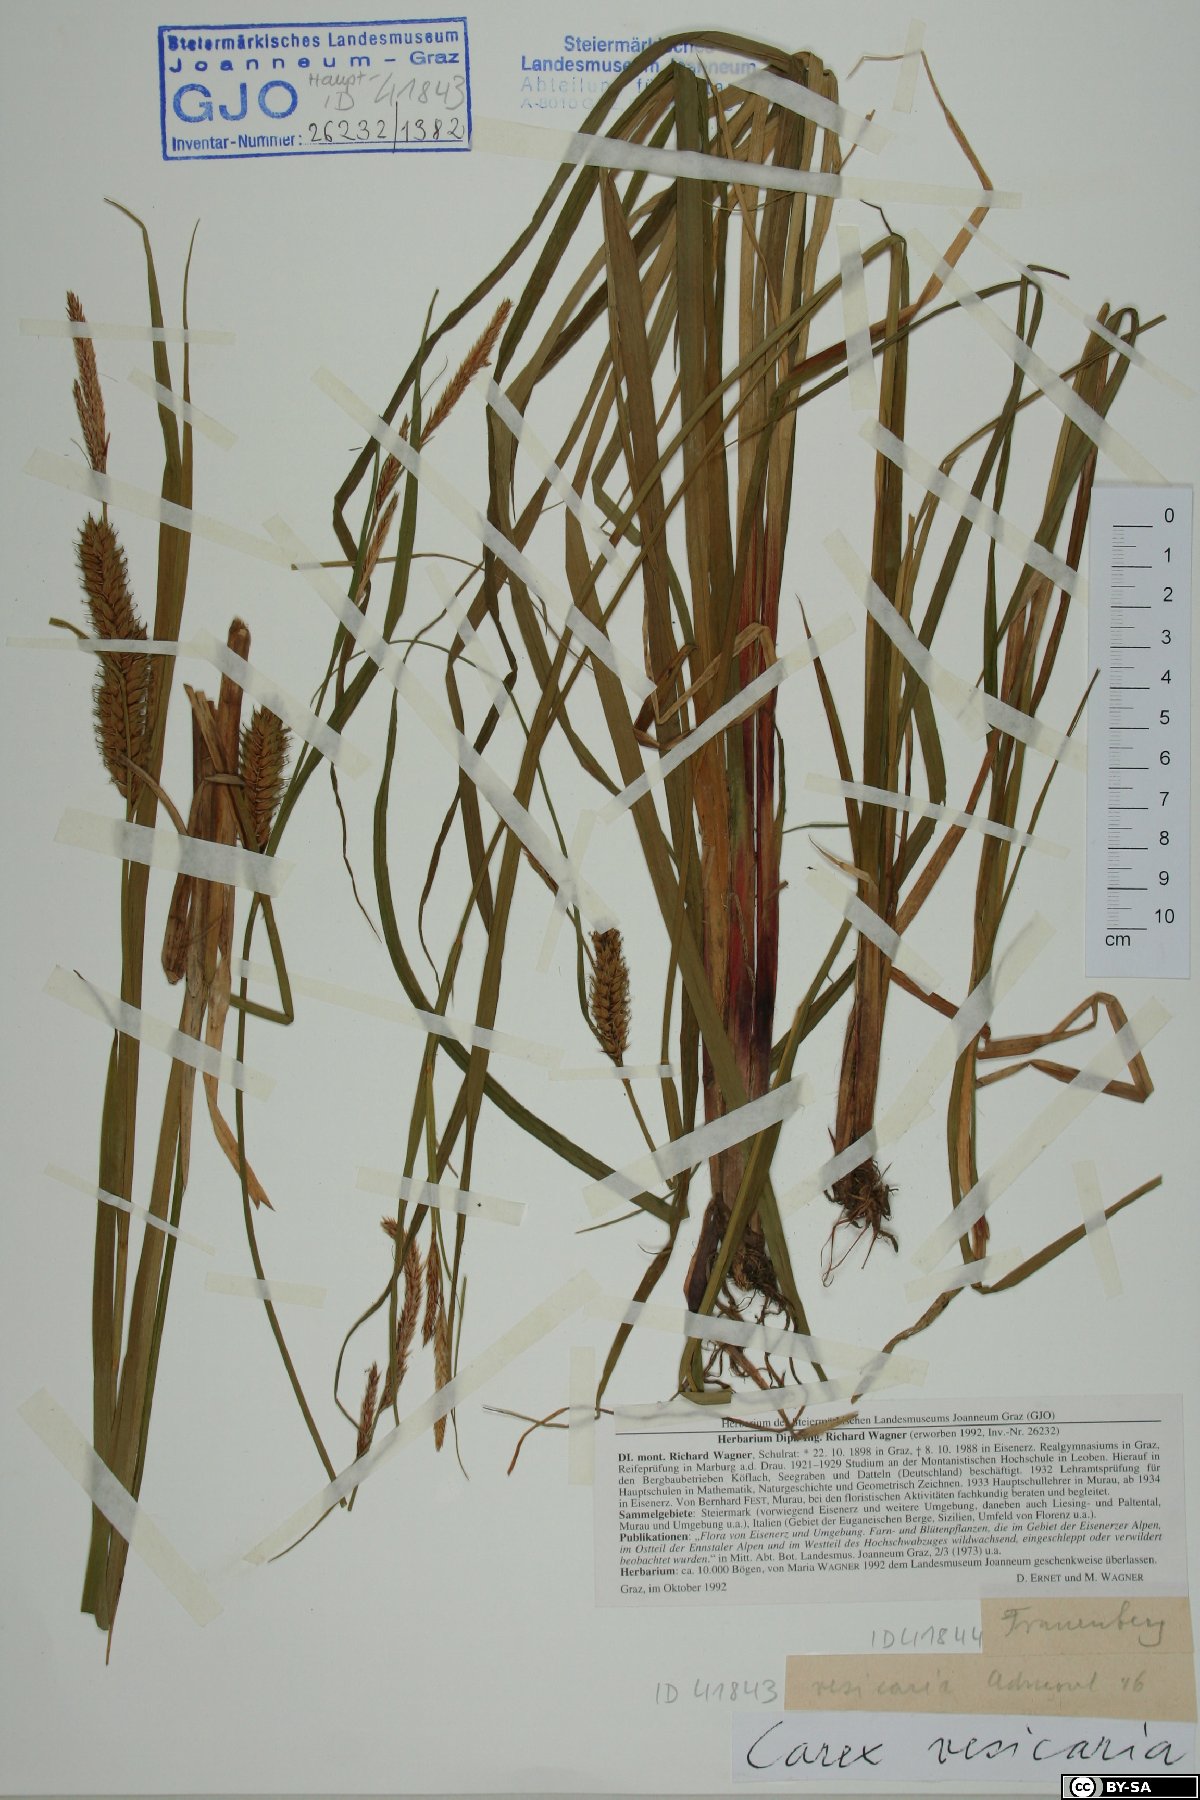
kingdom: Plantae
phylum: Tracheophyta
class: Liliopsida
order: Poales
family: Cyperaceae
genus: Carex
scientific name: Carex vesicaria
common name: Bladder-sedge
